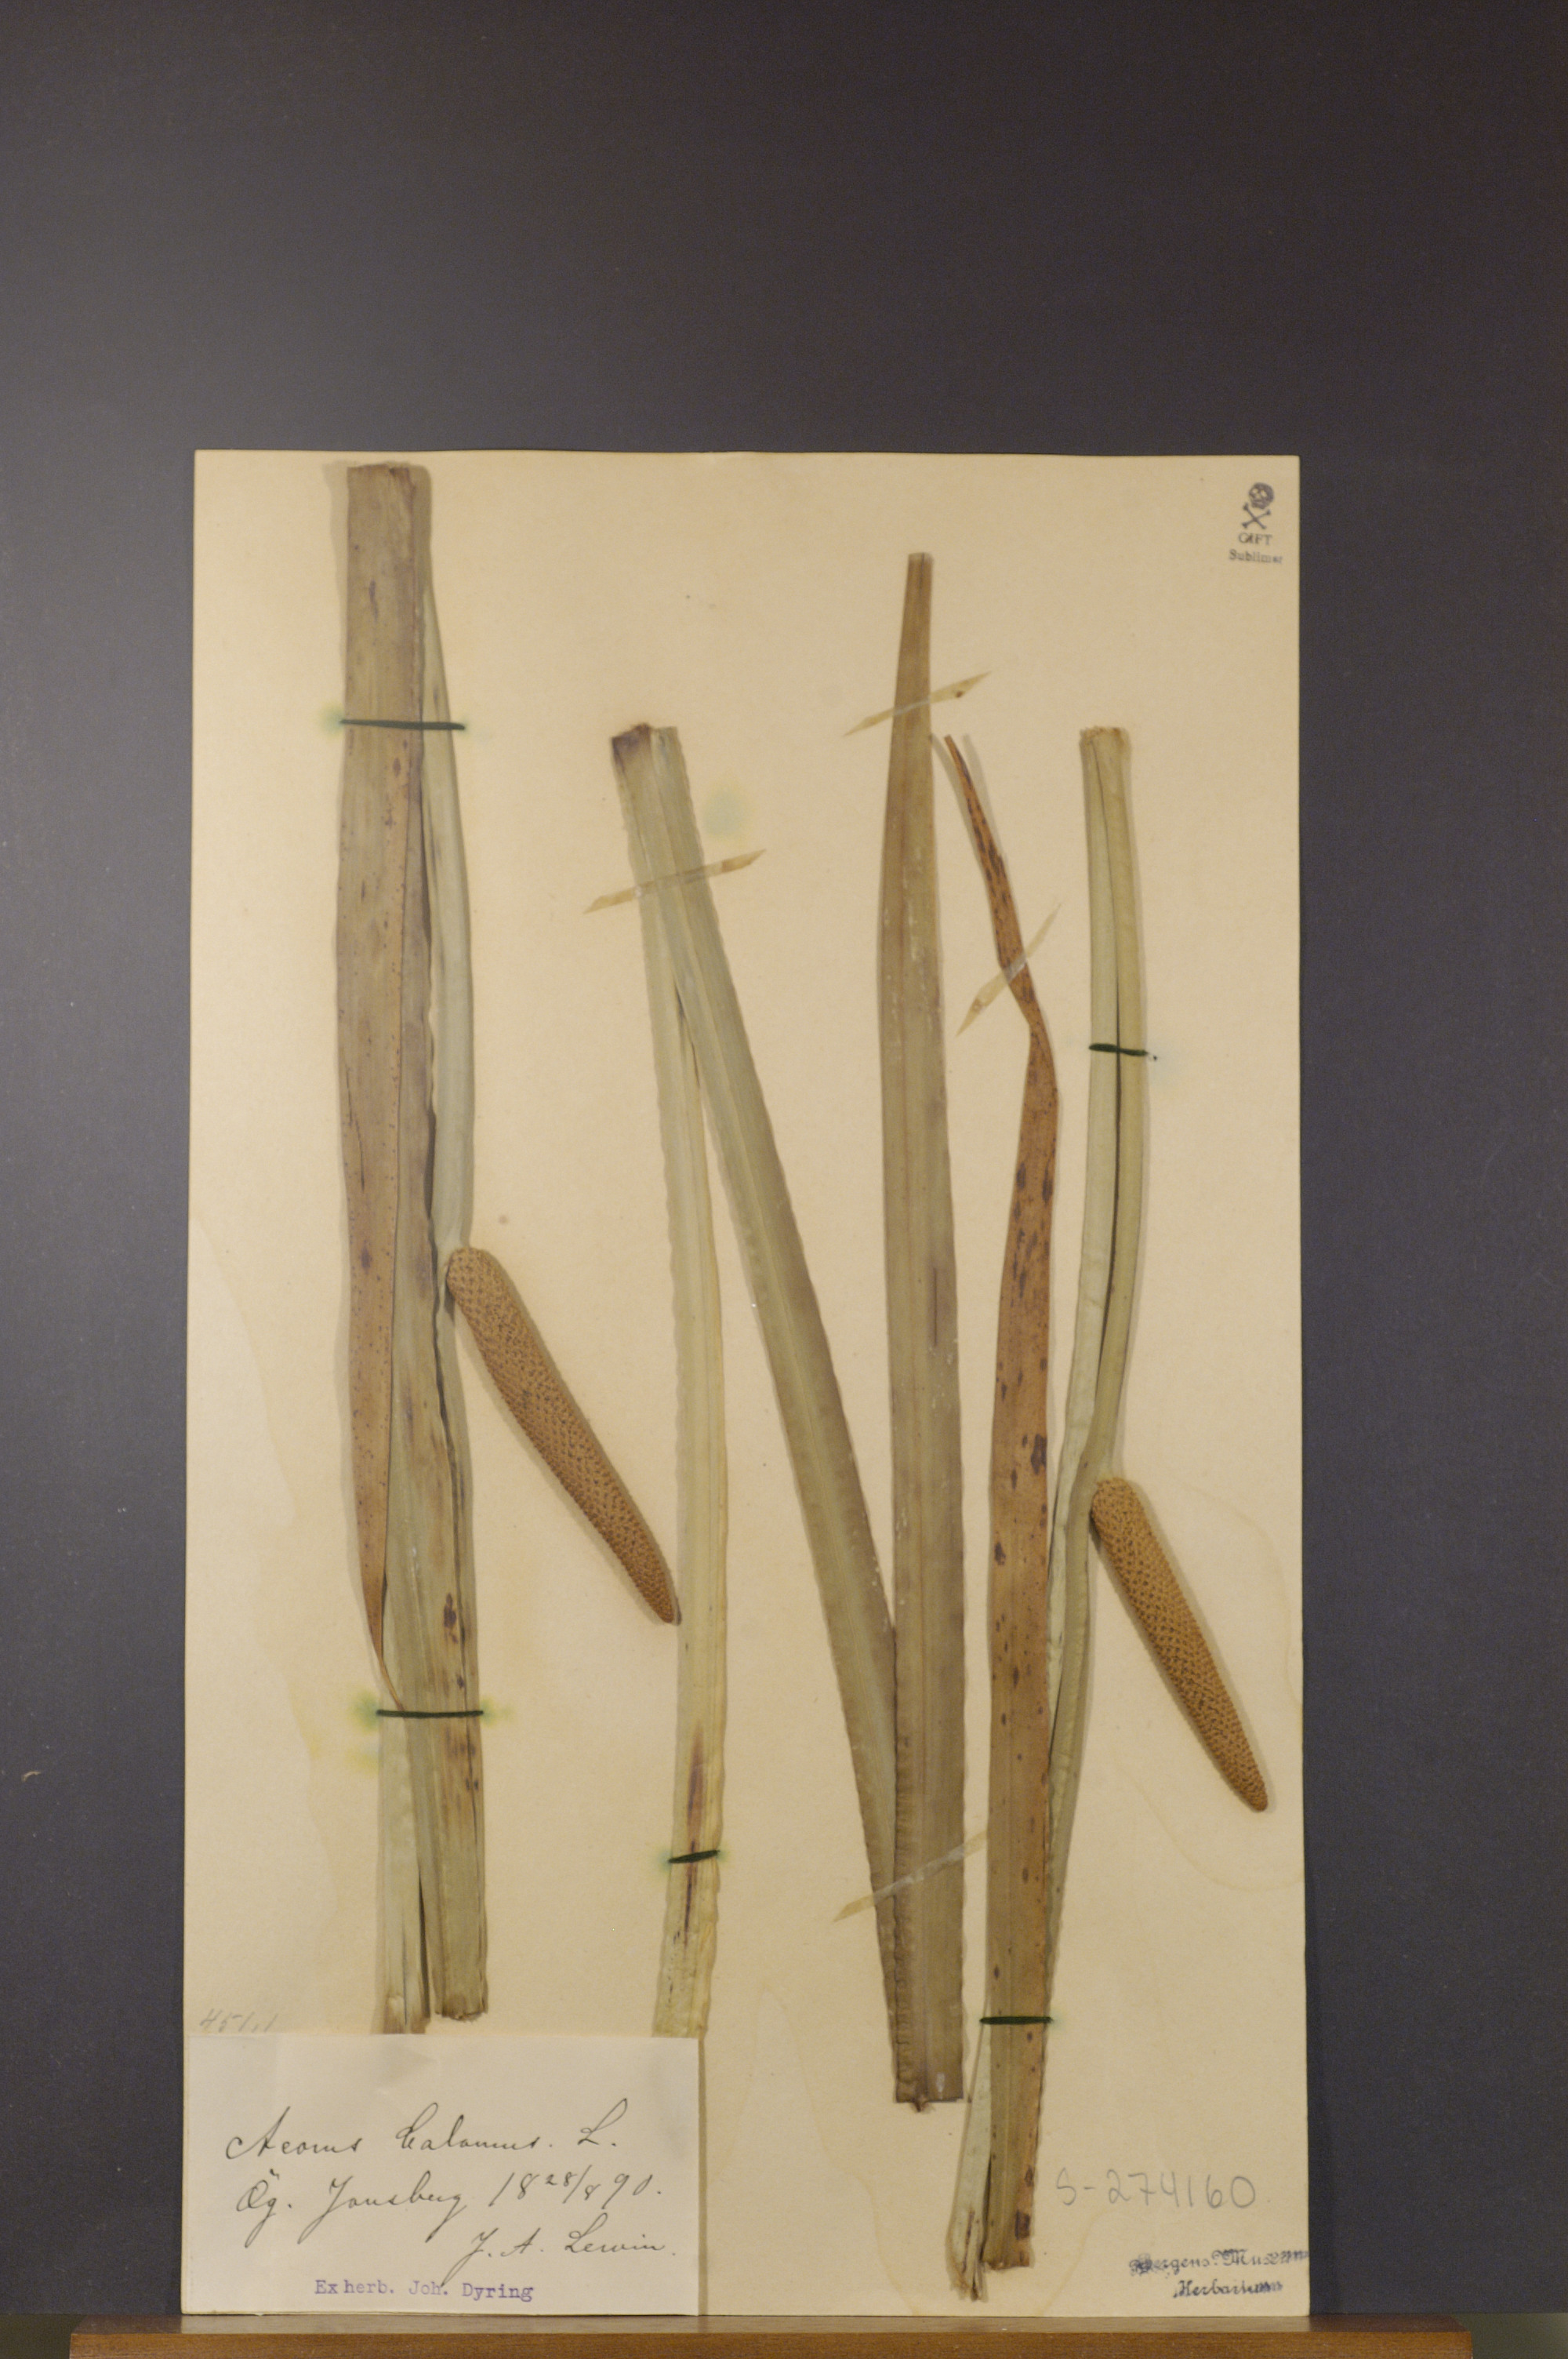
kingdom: Plantae
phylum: Tracheophyta
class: Liliopsida
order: Acorales
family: Acoraceae
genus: Acorus
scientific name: Acorus calamus
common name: Sweet-flag
